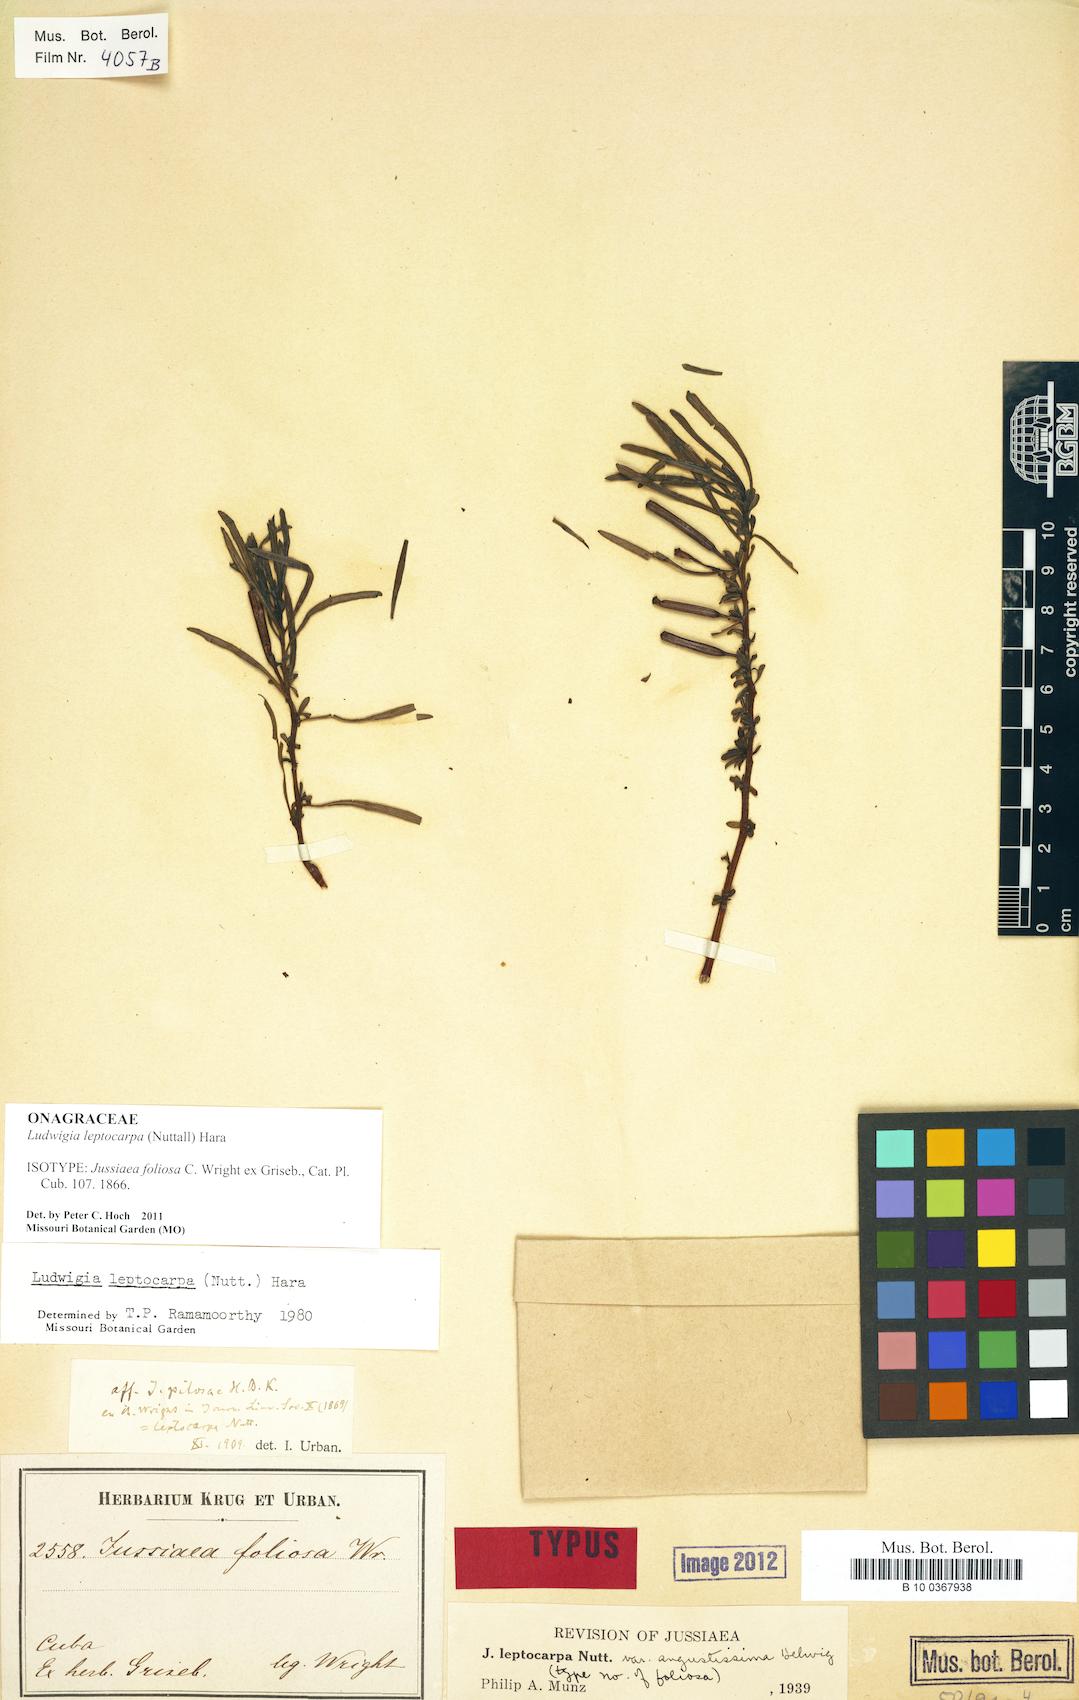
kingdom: Plantae
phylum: Tracheophyta
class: Magnoliopsida
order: Myrtales
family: Onagraceae
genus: Ludwigia
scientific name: Ludwigia leptocarpa
